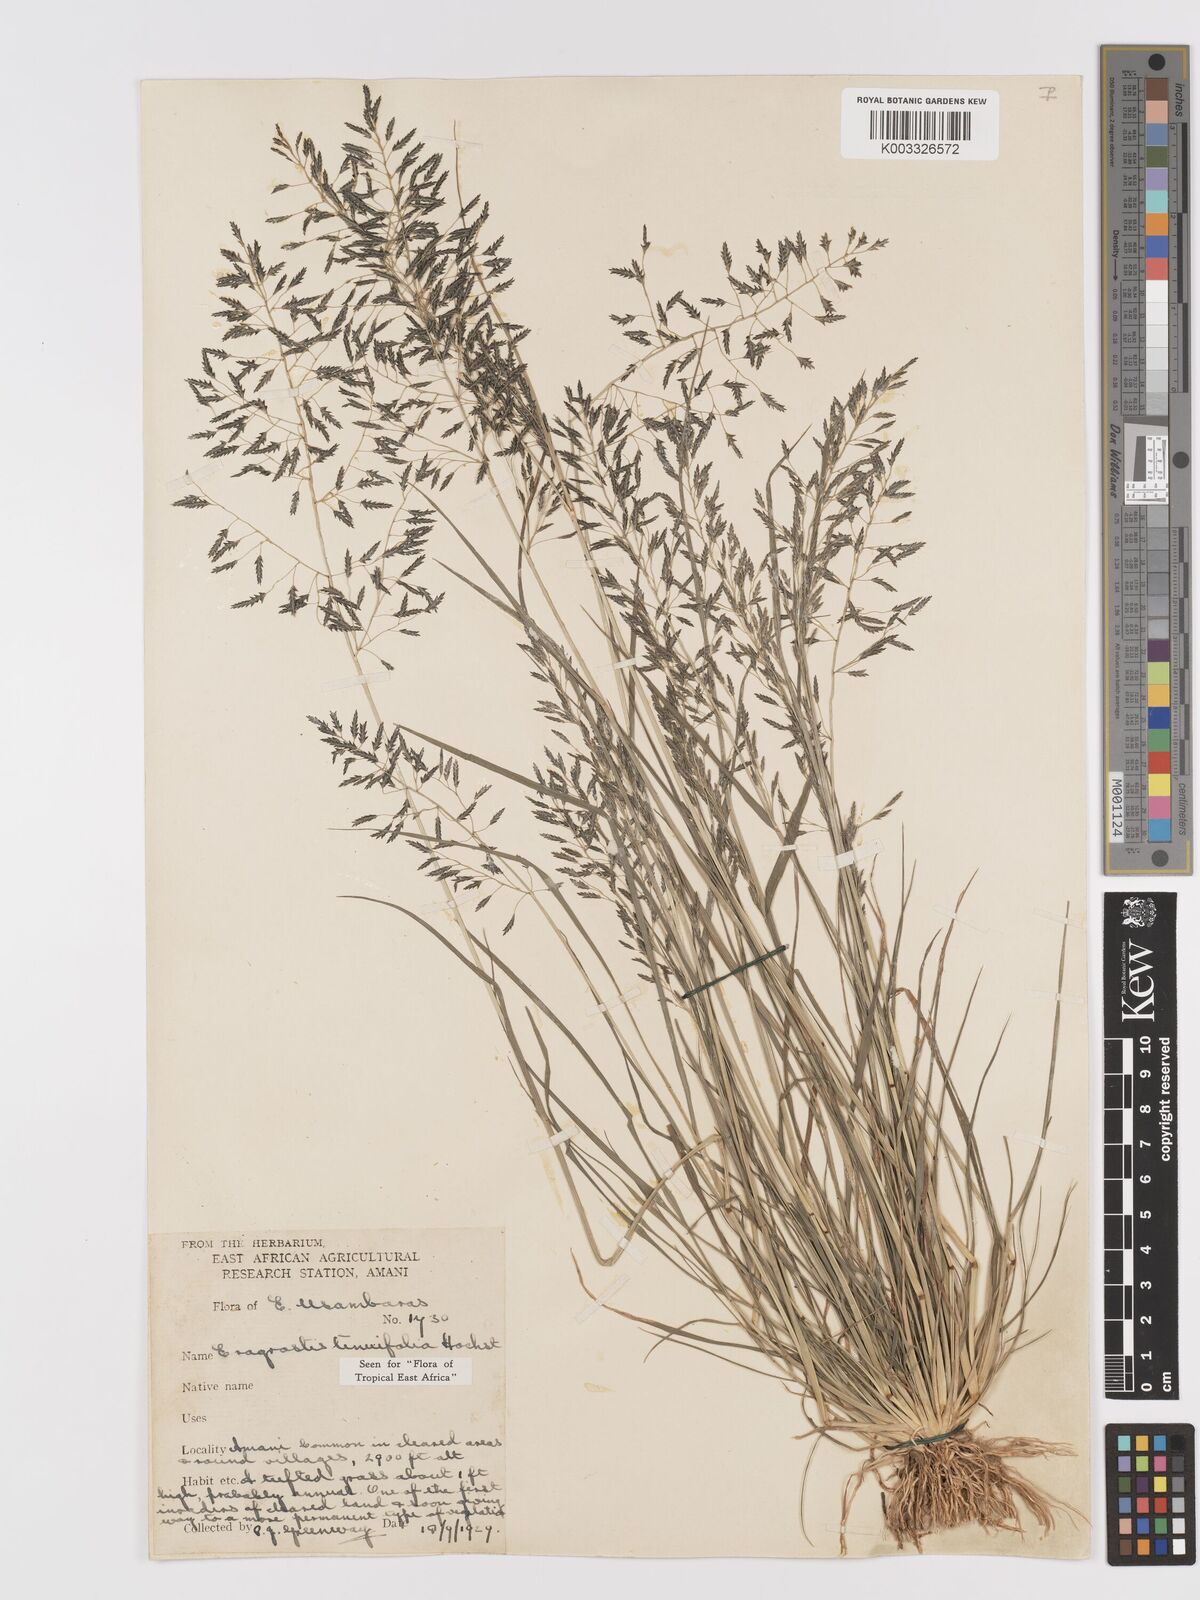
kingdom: Plantae
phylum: Tracheophyta
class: Liliopsida
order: Poales
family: Poaceae
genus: Eragrostis
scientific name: Eragrostis tenuifolia
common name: Elastic grass
